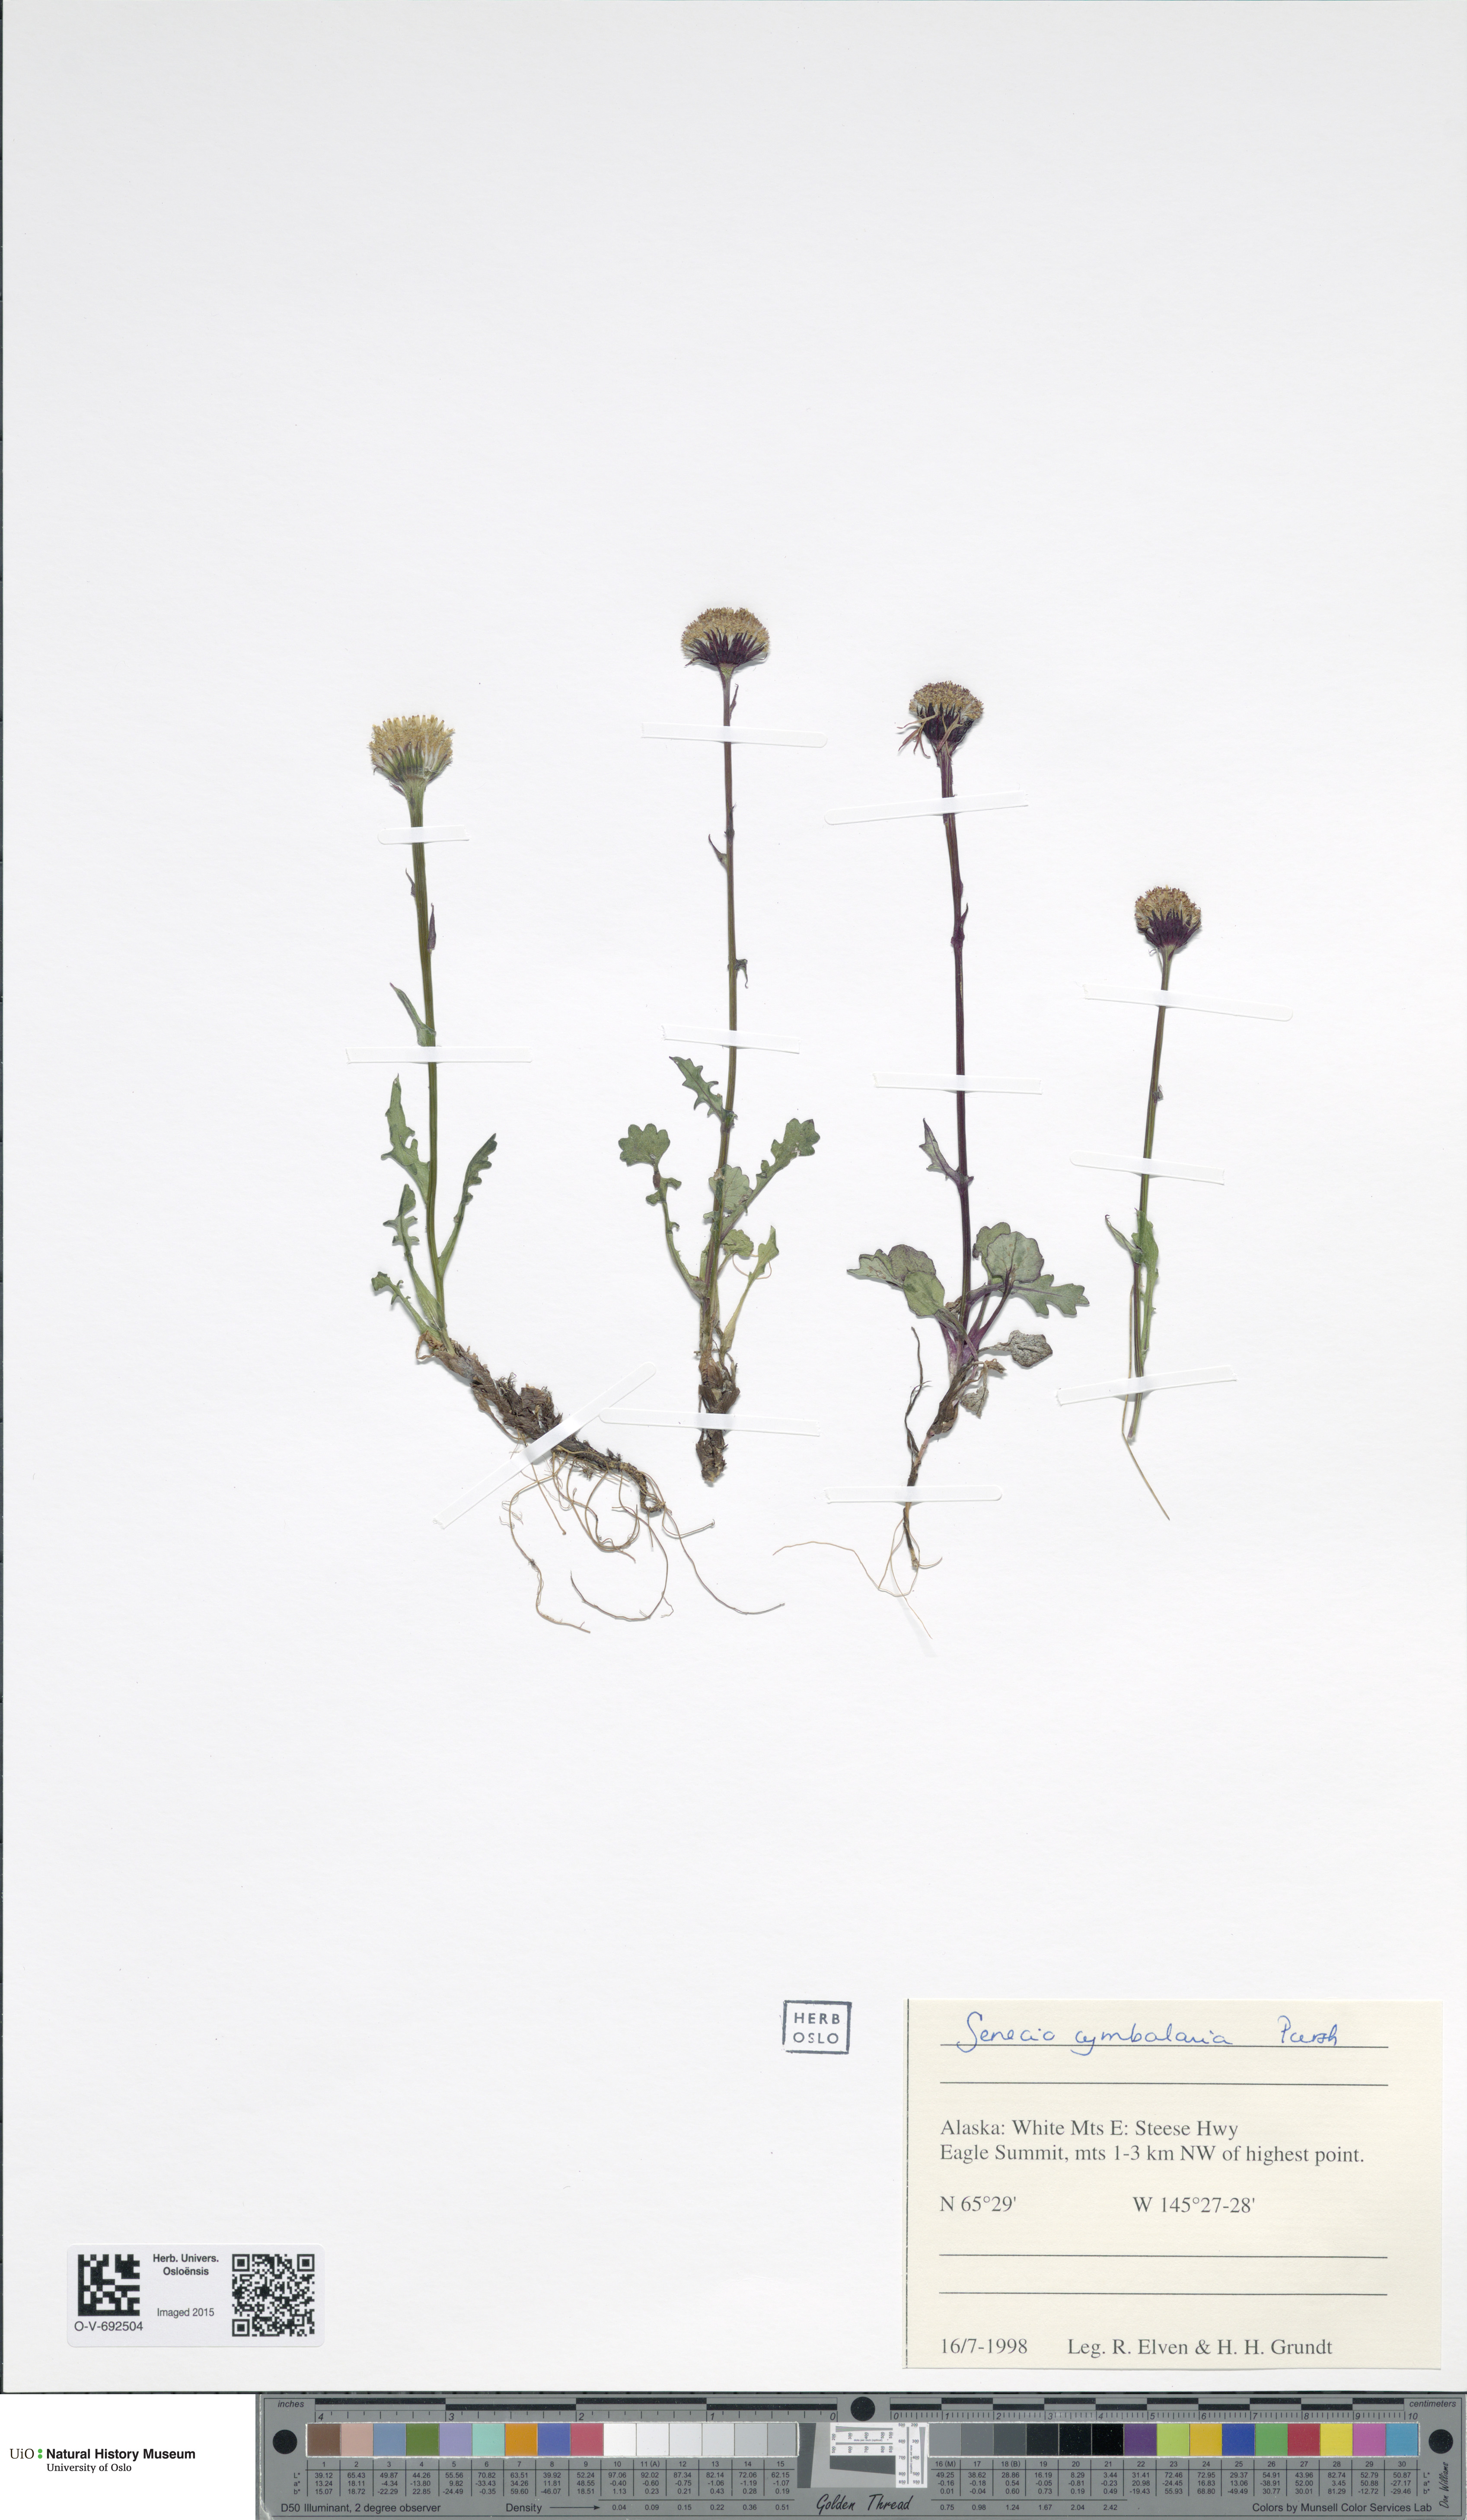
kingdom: Plantae
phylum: Tracheophyta
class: Magnoliopsida
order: Asterales
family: Asteraceae
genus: Packera
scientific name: Packera heterophylla
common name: Arctic butterweed
